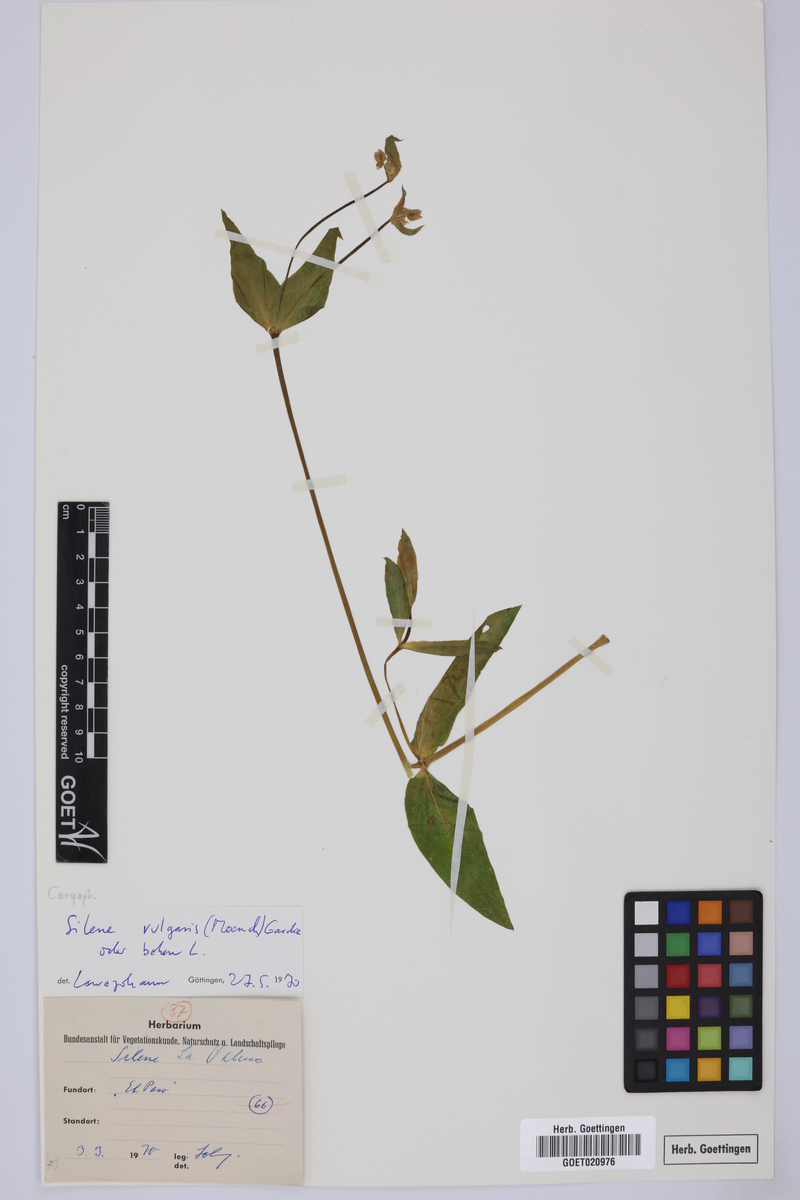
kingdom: Plantae
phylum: Tracheophyta
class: Magnoliopsida
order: Caryophyllales
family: Caryophyllaceae
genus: Silene
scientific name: Silene vulgaris
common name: Bladder campion
